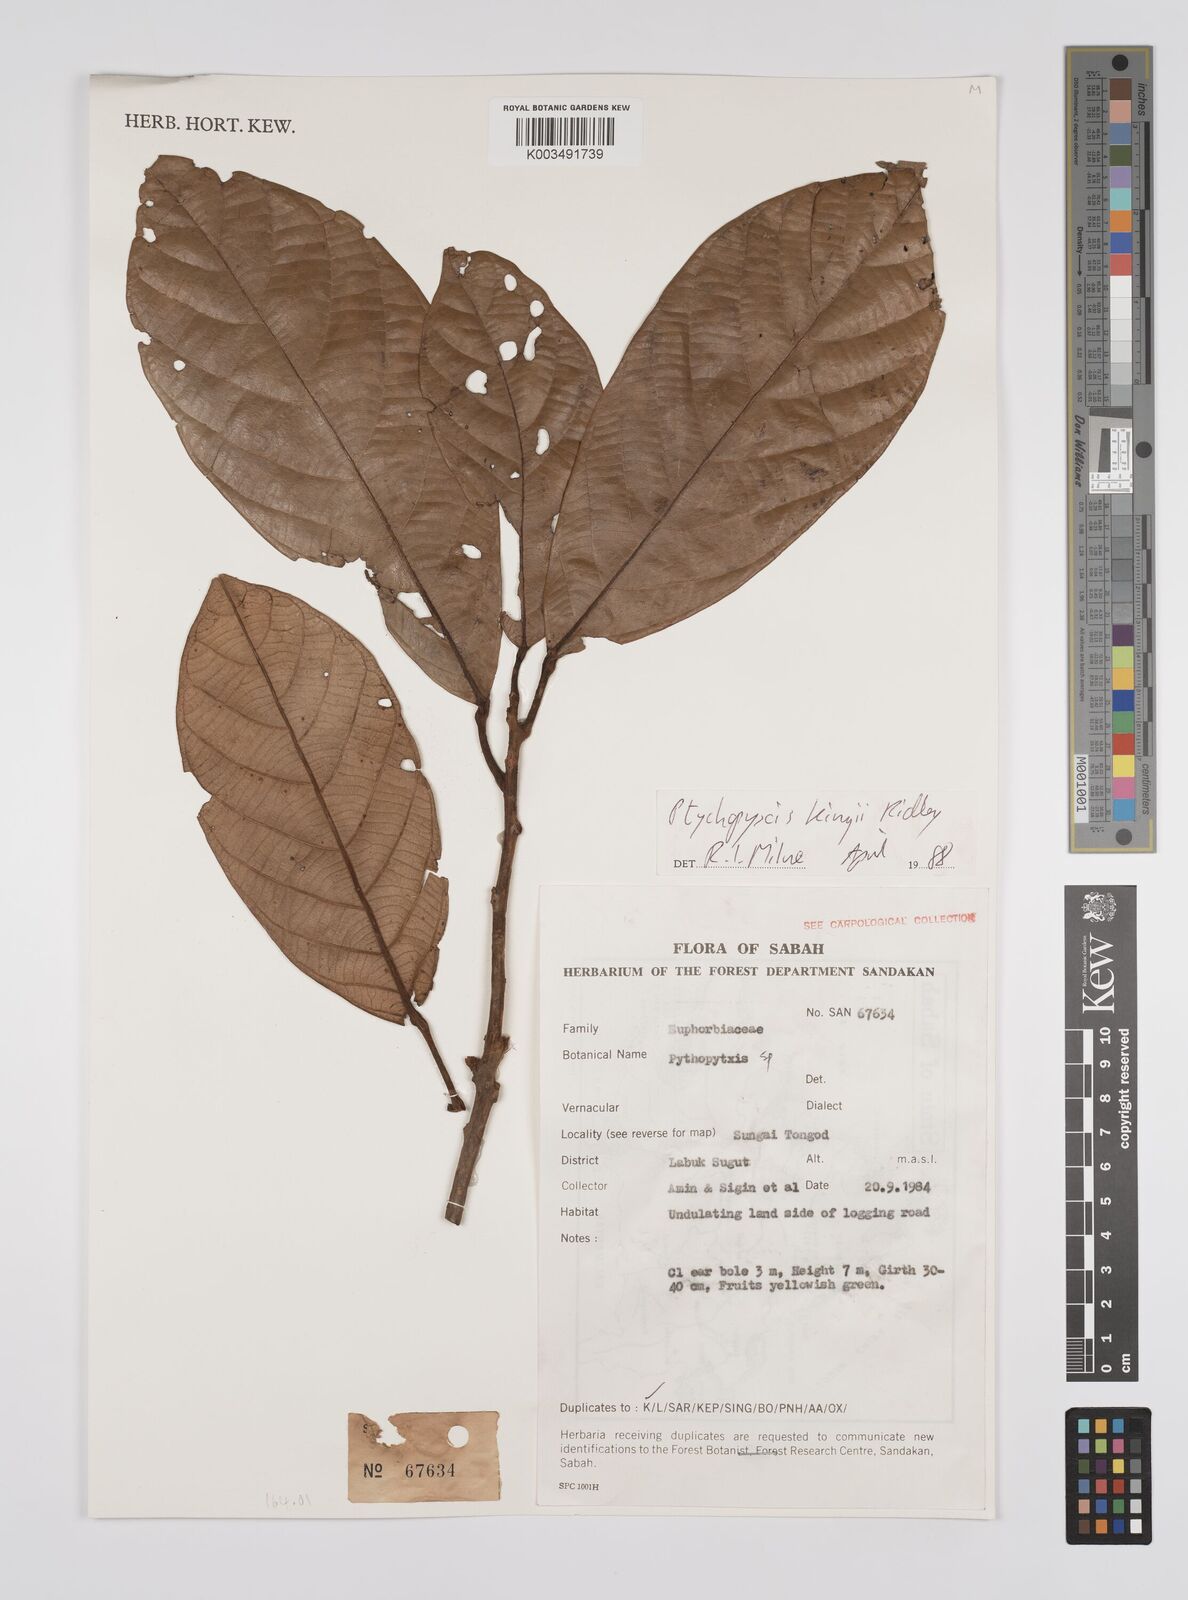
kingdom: Plantae
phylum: Tracheophyta
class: Magnoliopsida
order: Malpighiales
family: Euphorbiaceae
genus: Ptychopyxis
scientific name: Ptychopyxis kingii
